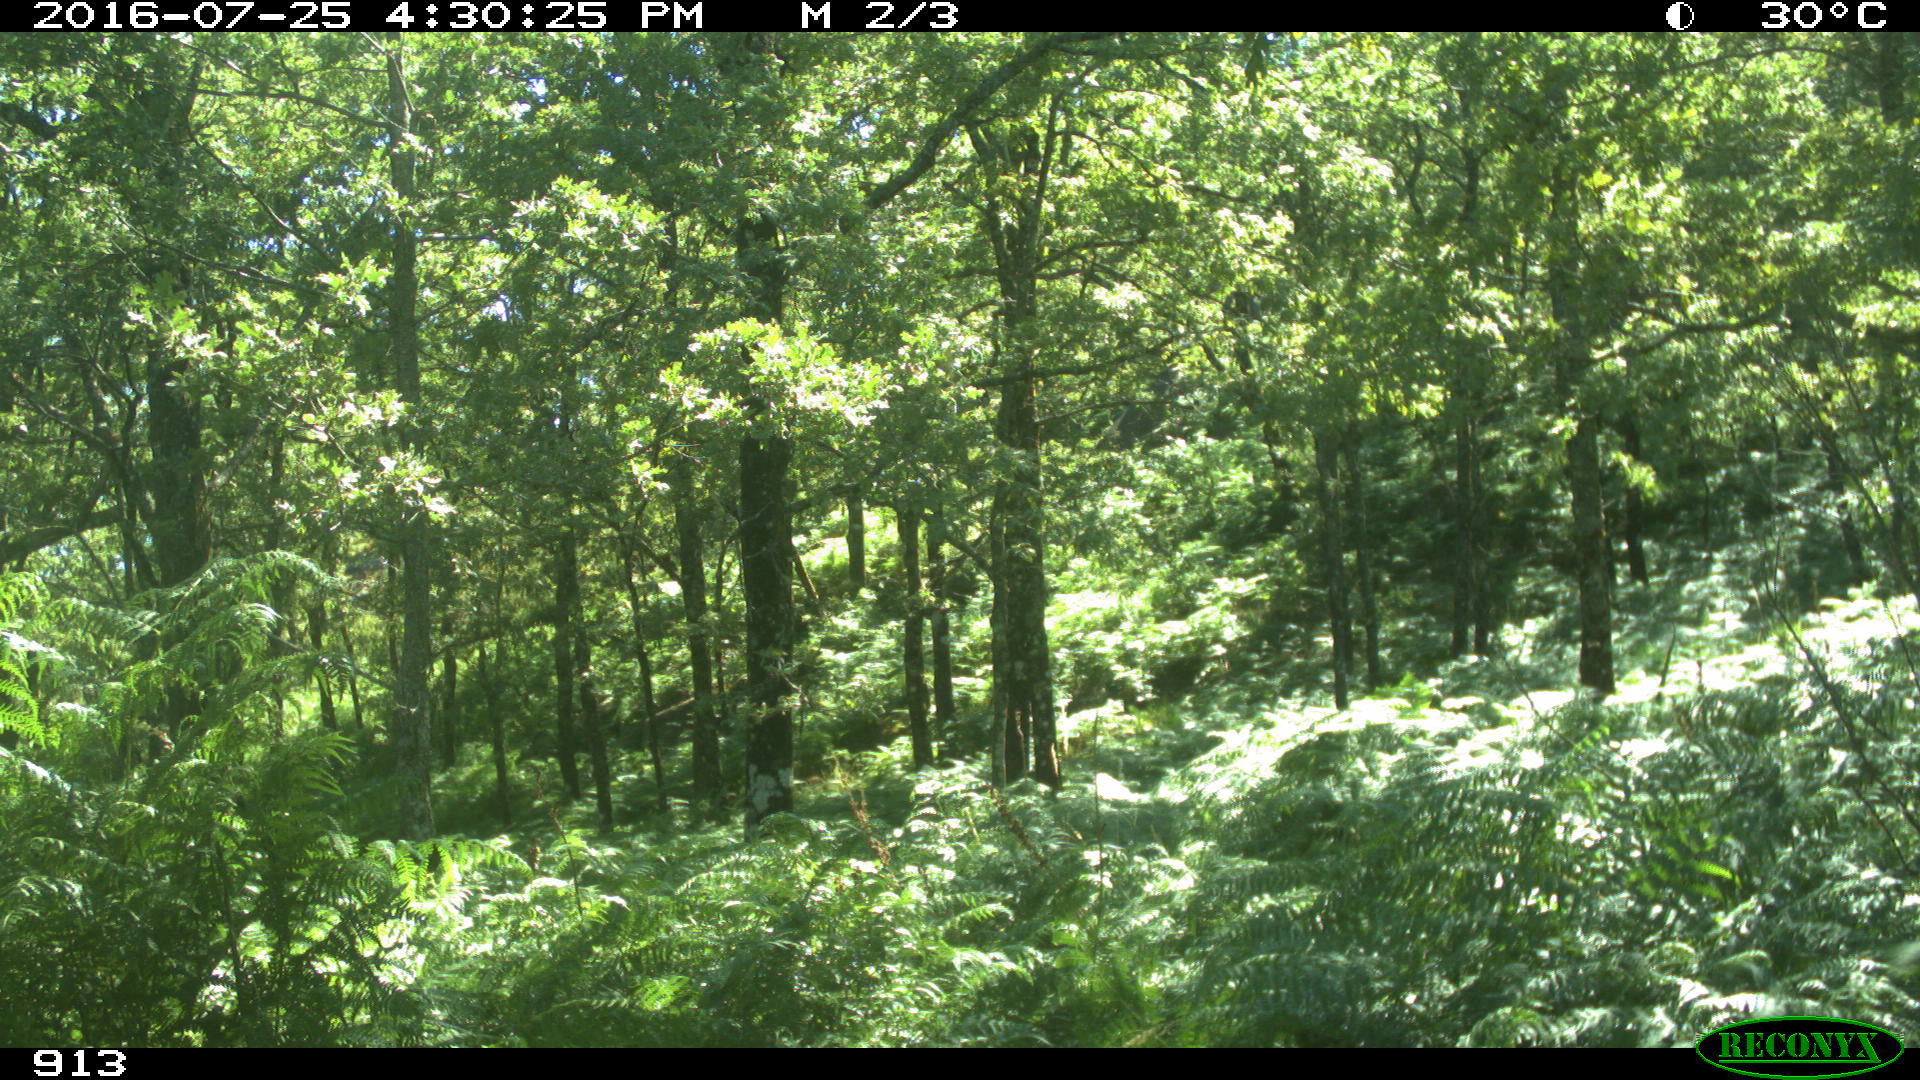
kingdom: Animalia
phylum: Chordata
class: Mammalia
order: Artiodactyla
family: Bovidae
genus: Bos
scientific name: Bos taurus
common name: Domesticated cattle
